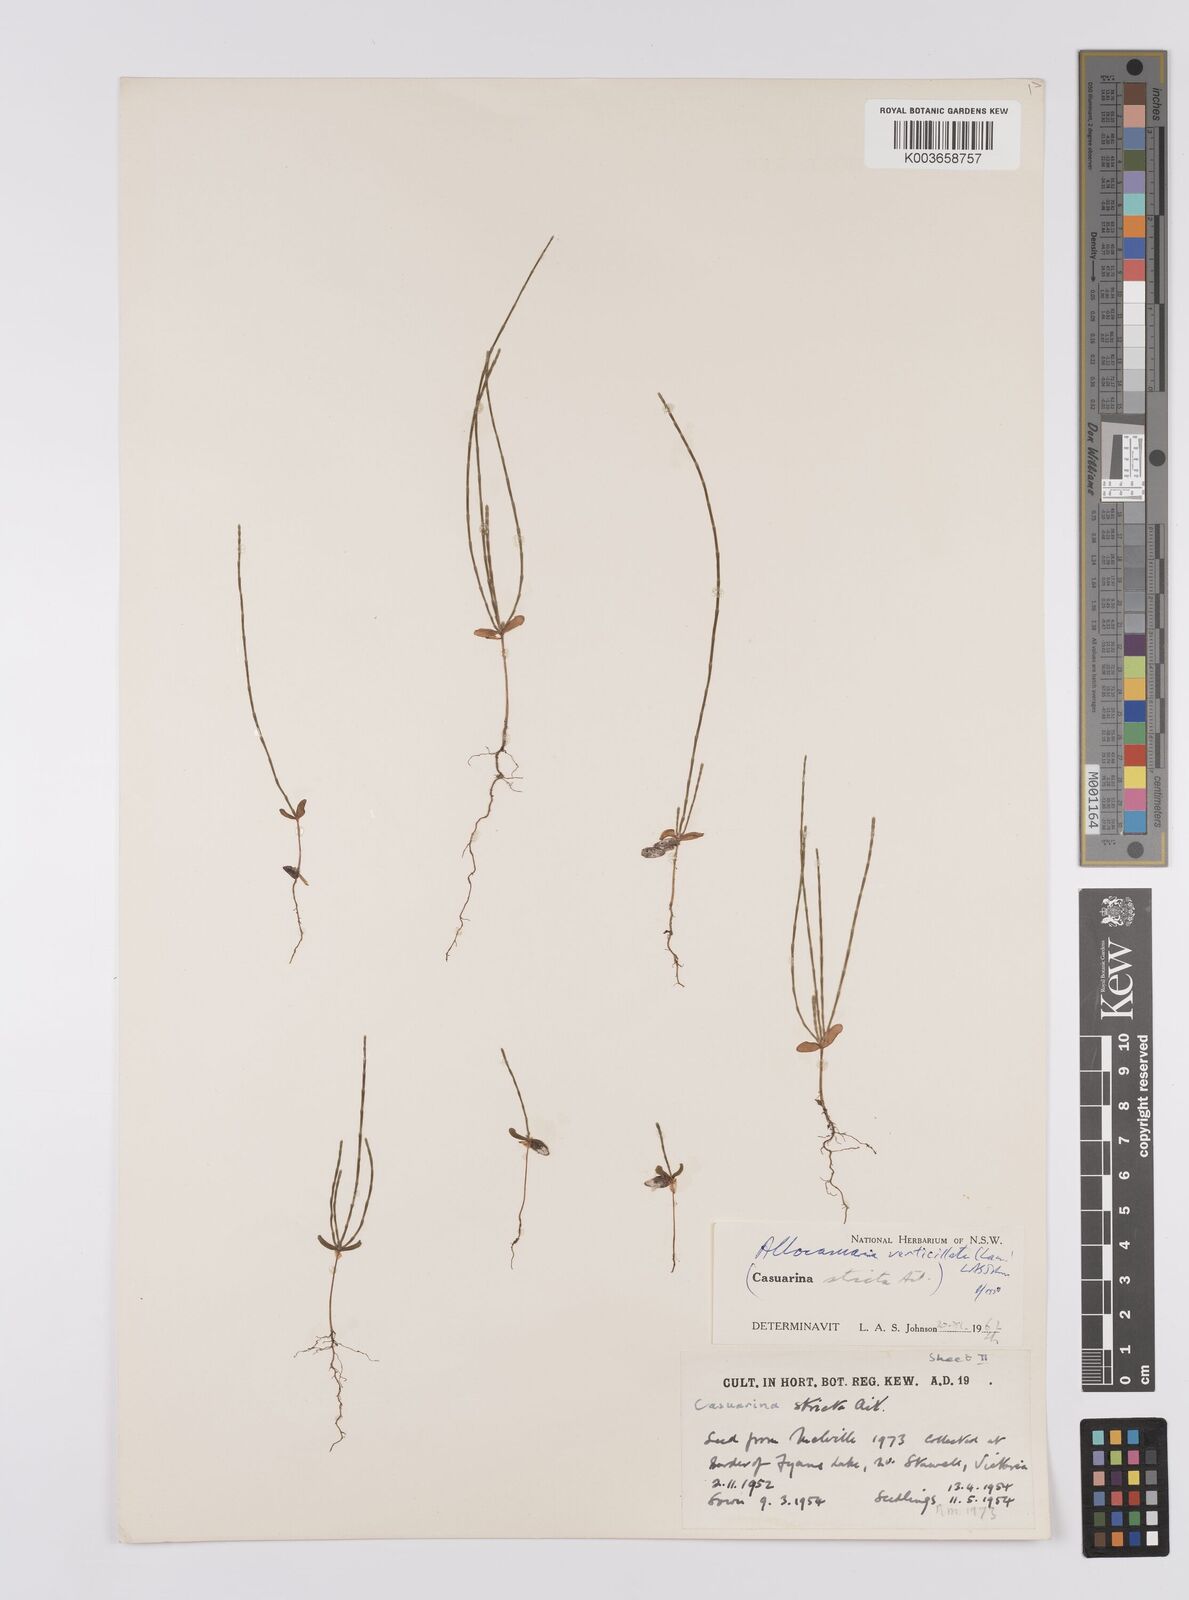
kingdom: Plantae
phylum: Tracheophyta
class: Magnoliopsida
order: Fagales
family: Casuarinaceae
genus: Allocasuarina
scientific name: Allocasuarina verticillata
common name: Drooping she-oak
